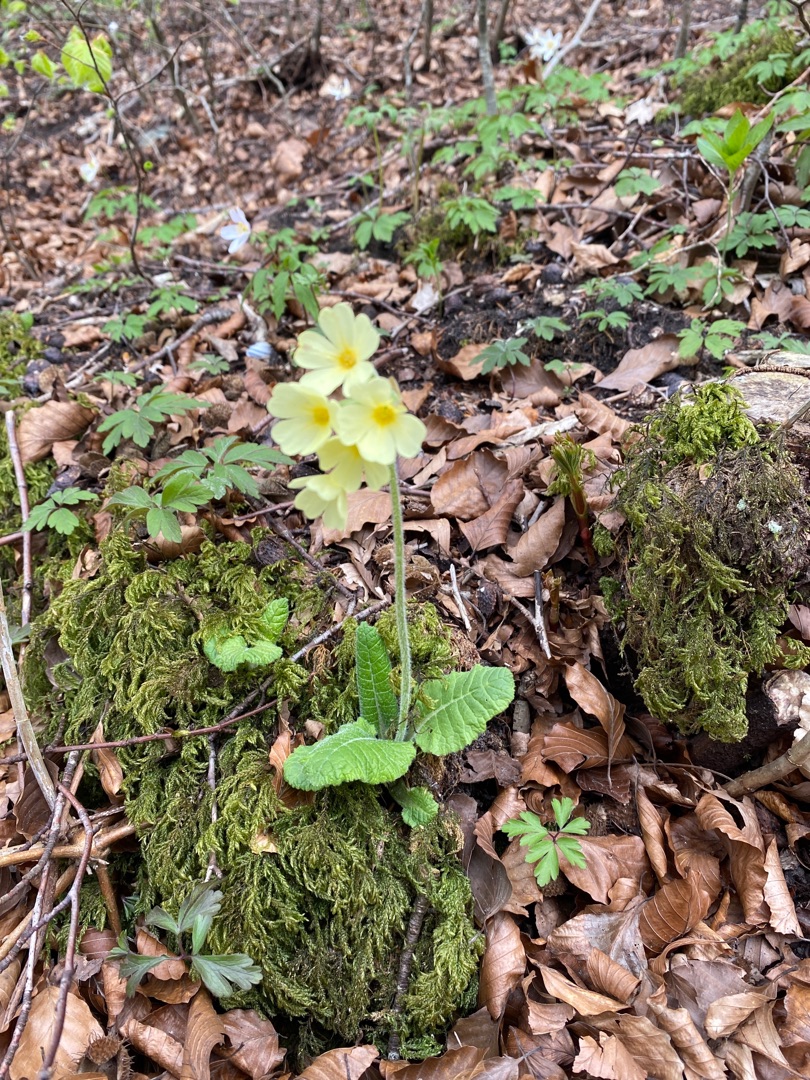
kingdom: Plantae
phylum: Tracheophyta
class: Magnoliopsida
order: Ericales
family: Primulaceae
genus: Primula
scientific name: Primula elatior
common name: Fladkravet kodriver
